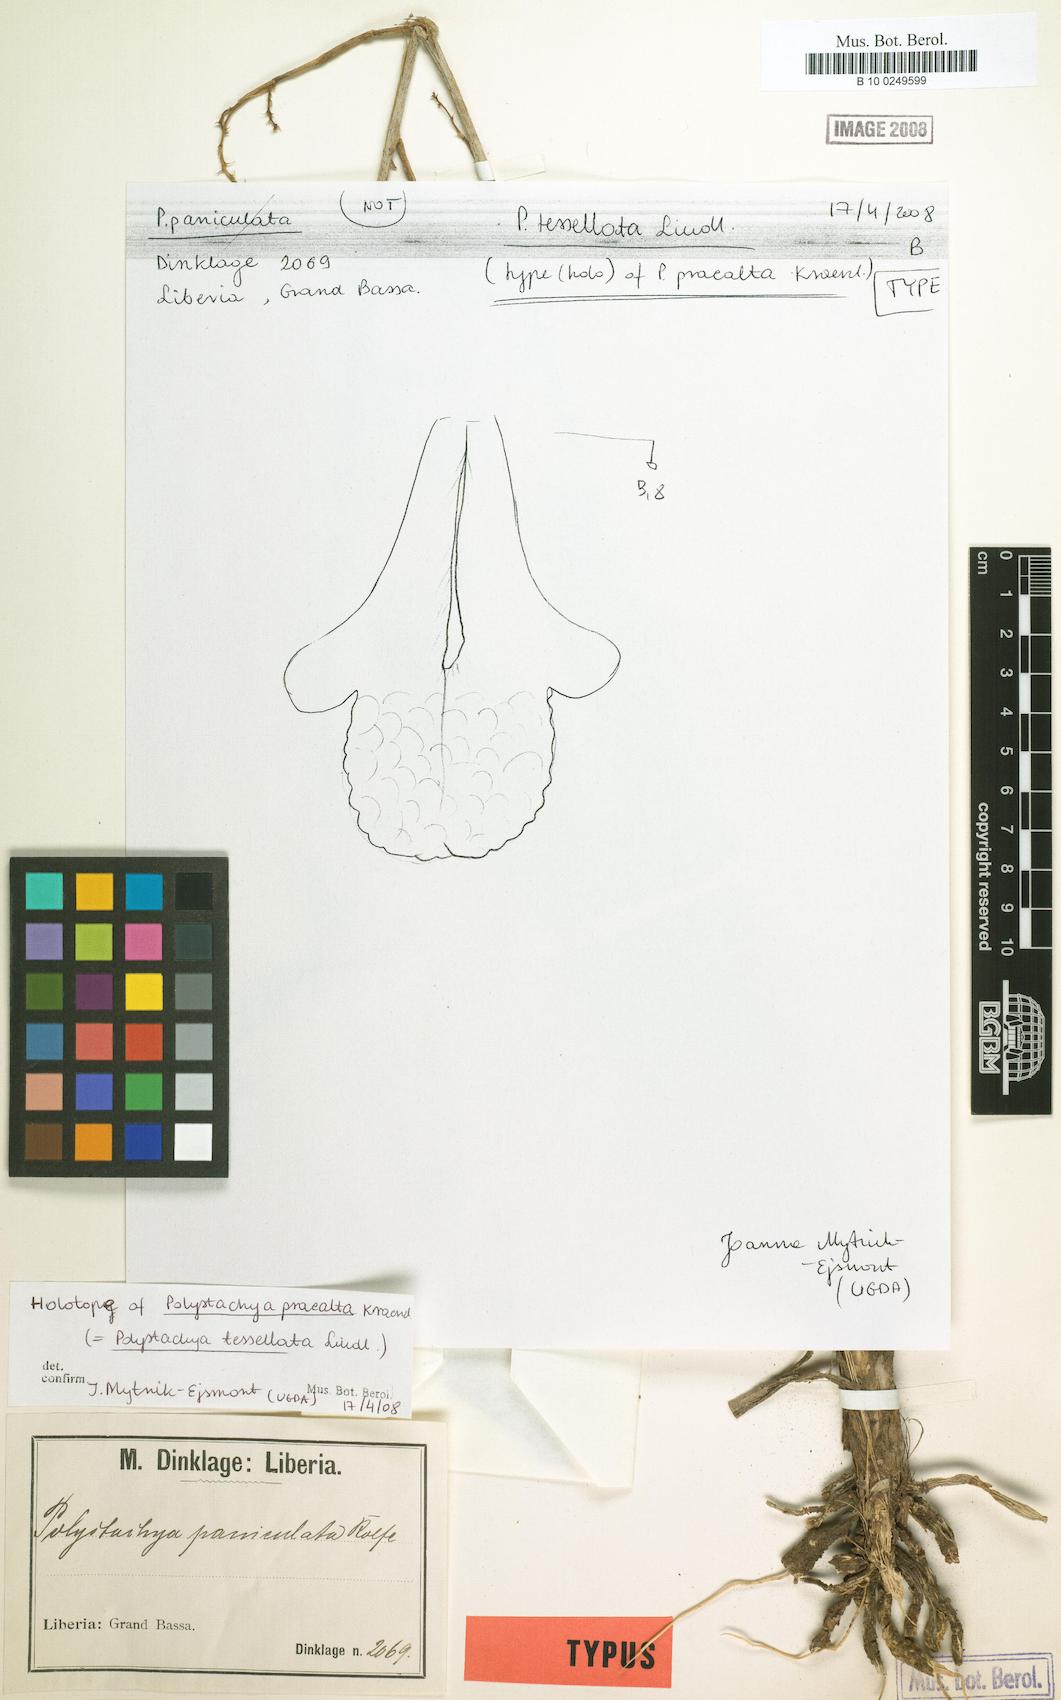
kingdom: Plantae
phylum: Tracheophyta
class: Liliopsida
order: Asparagales
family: Orchidaceae
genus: Polystachya
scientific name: Polystachya concreta
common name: Greater yellowspike orchid
